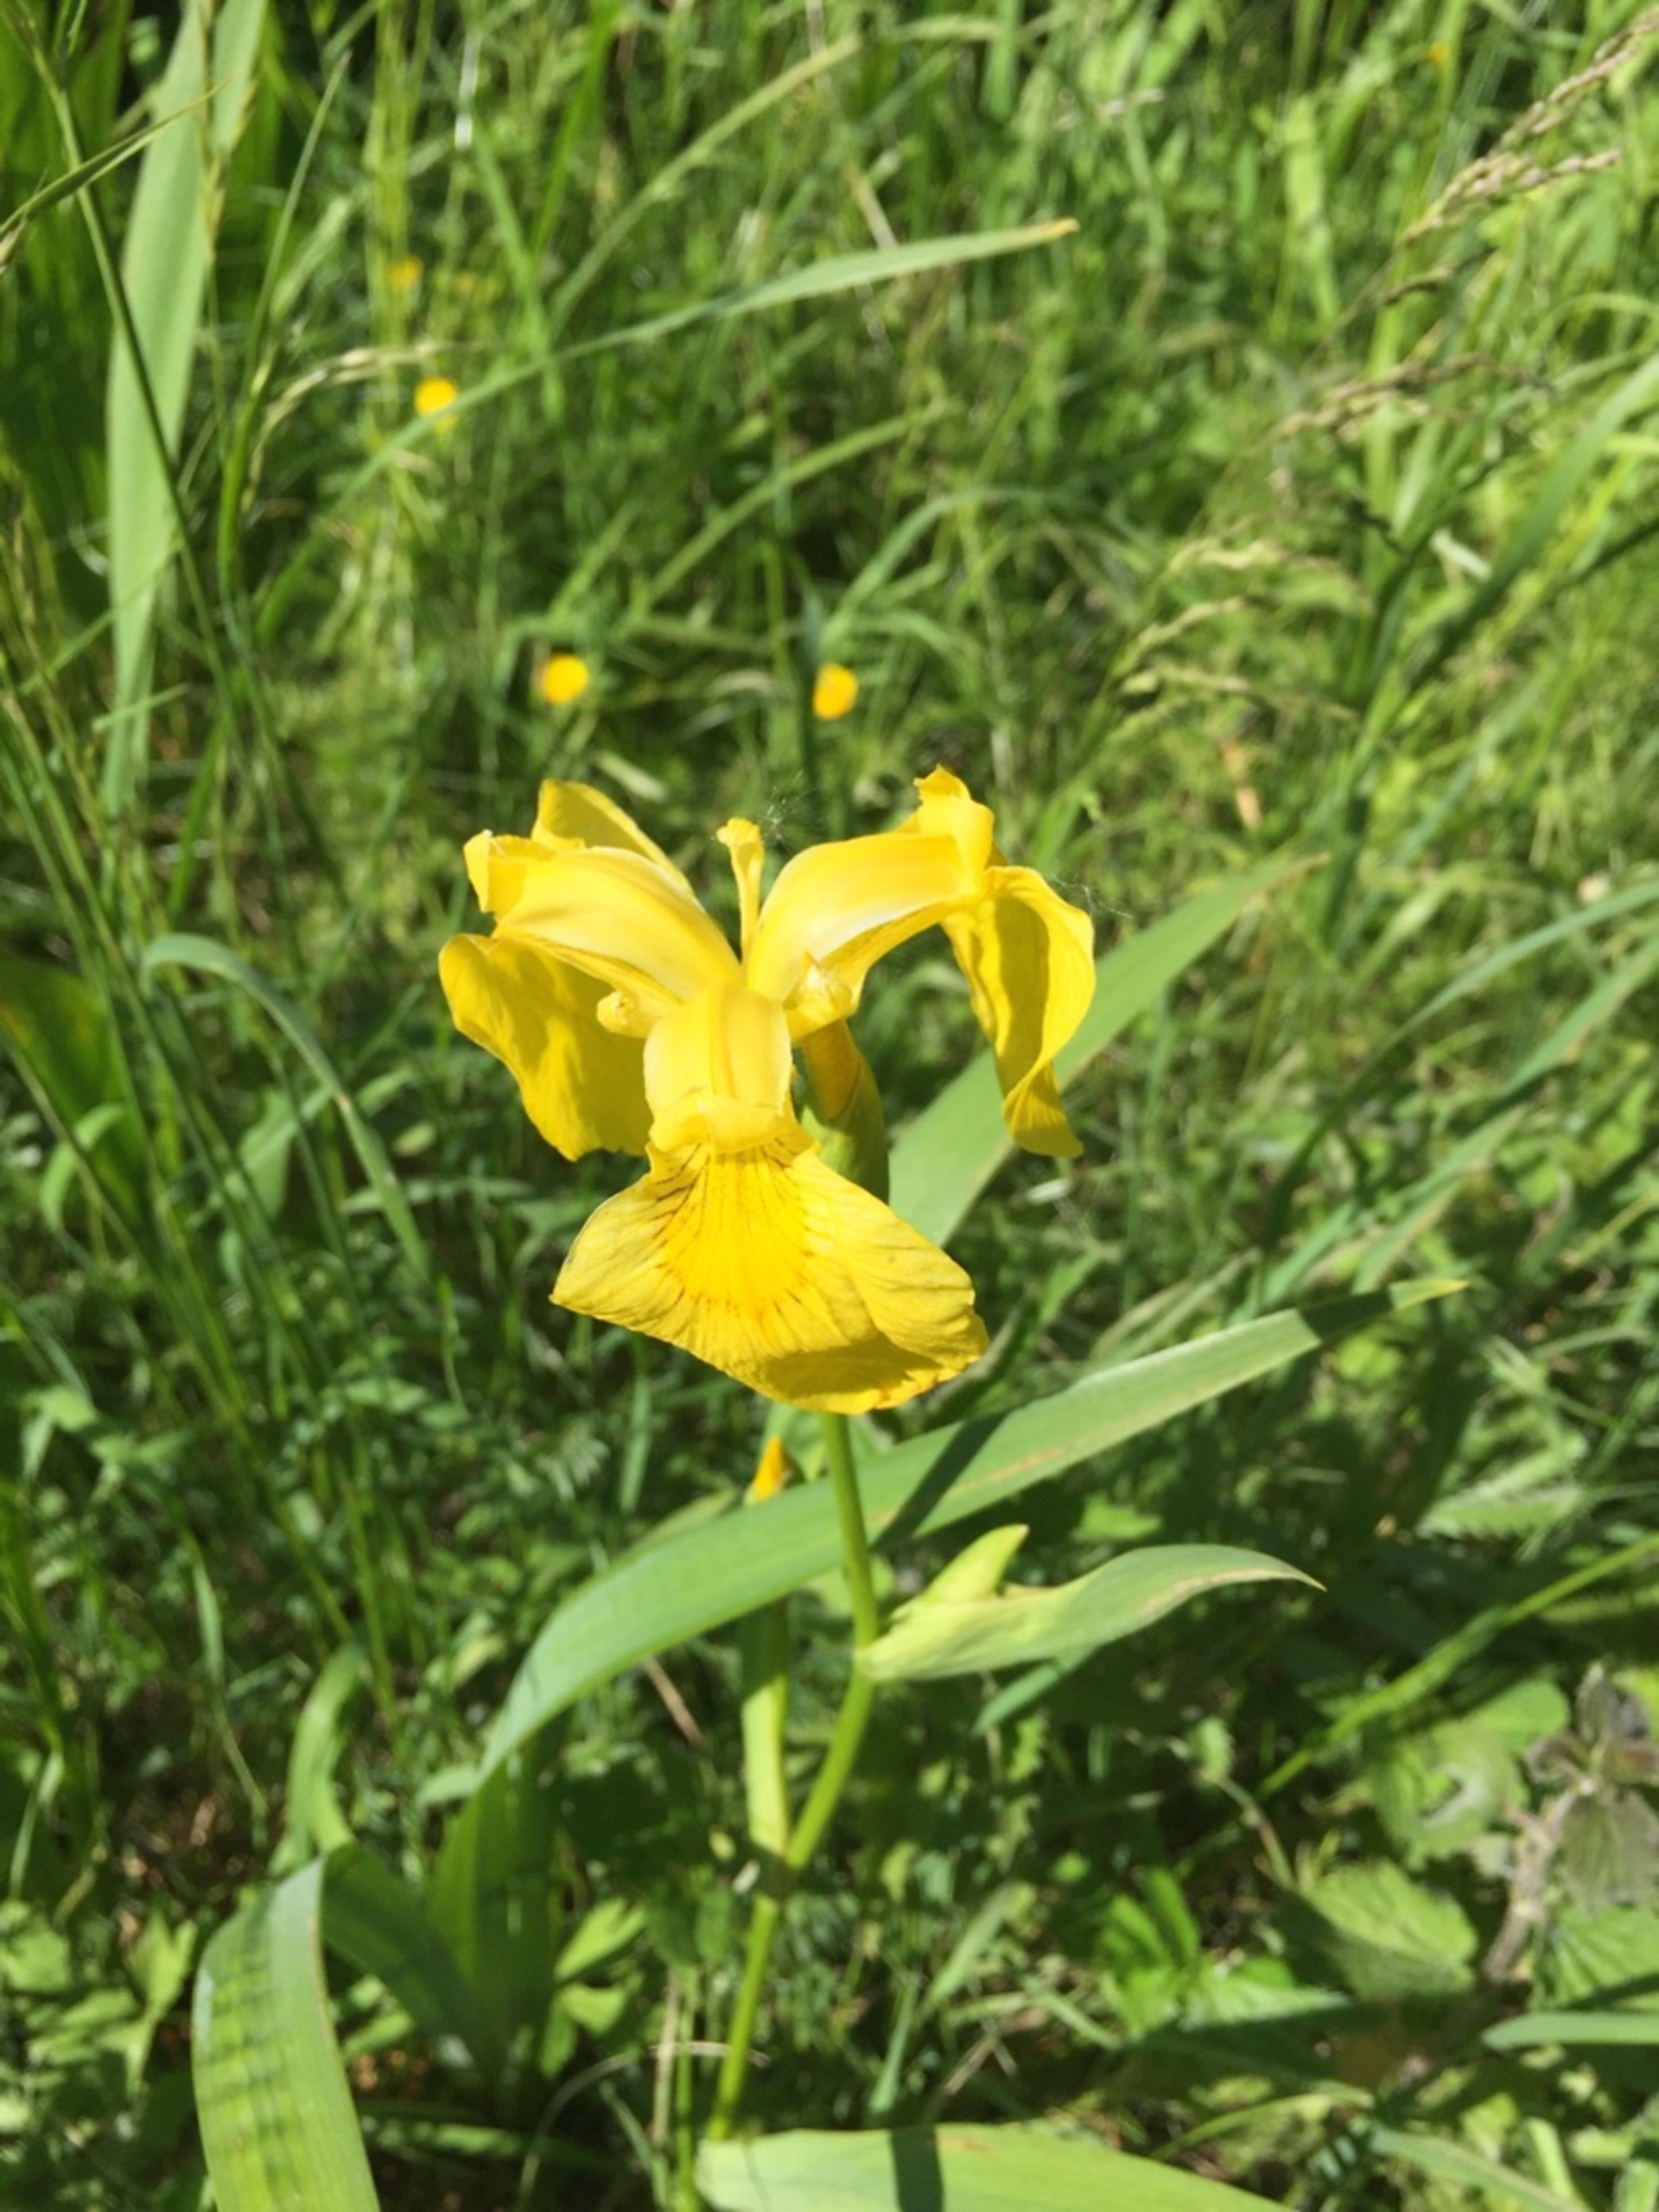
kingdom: Plantae
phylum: Tracheophyta
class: Liliopsida
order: Asparagales
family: Iridaceae
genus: Iris
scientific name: Iris pseudacorus
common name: Gul iris
